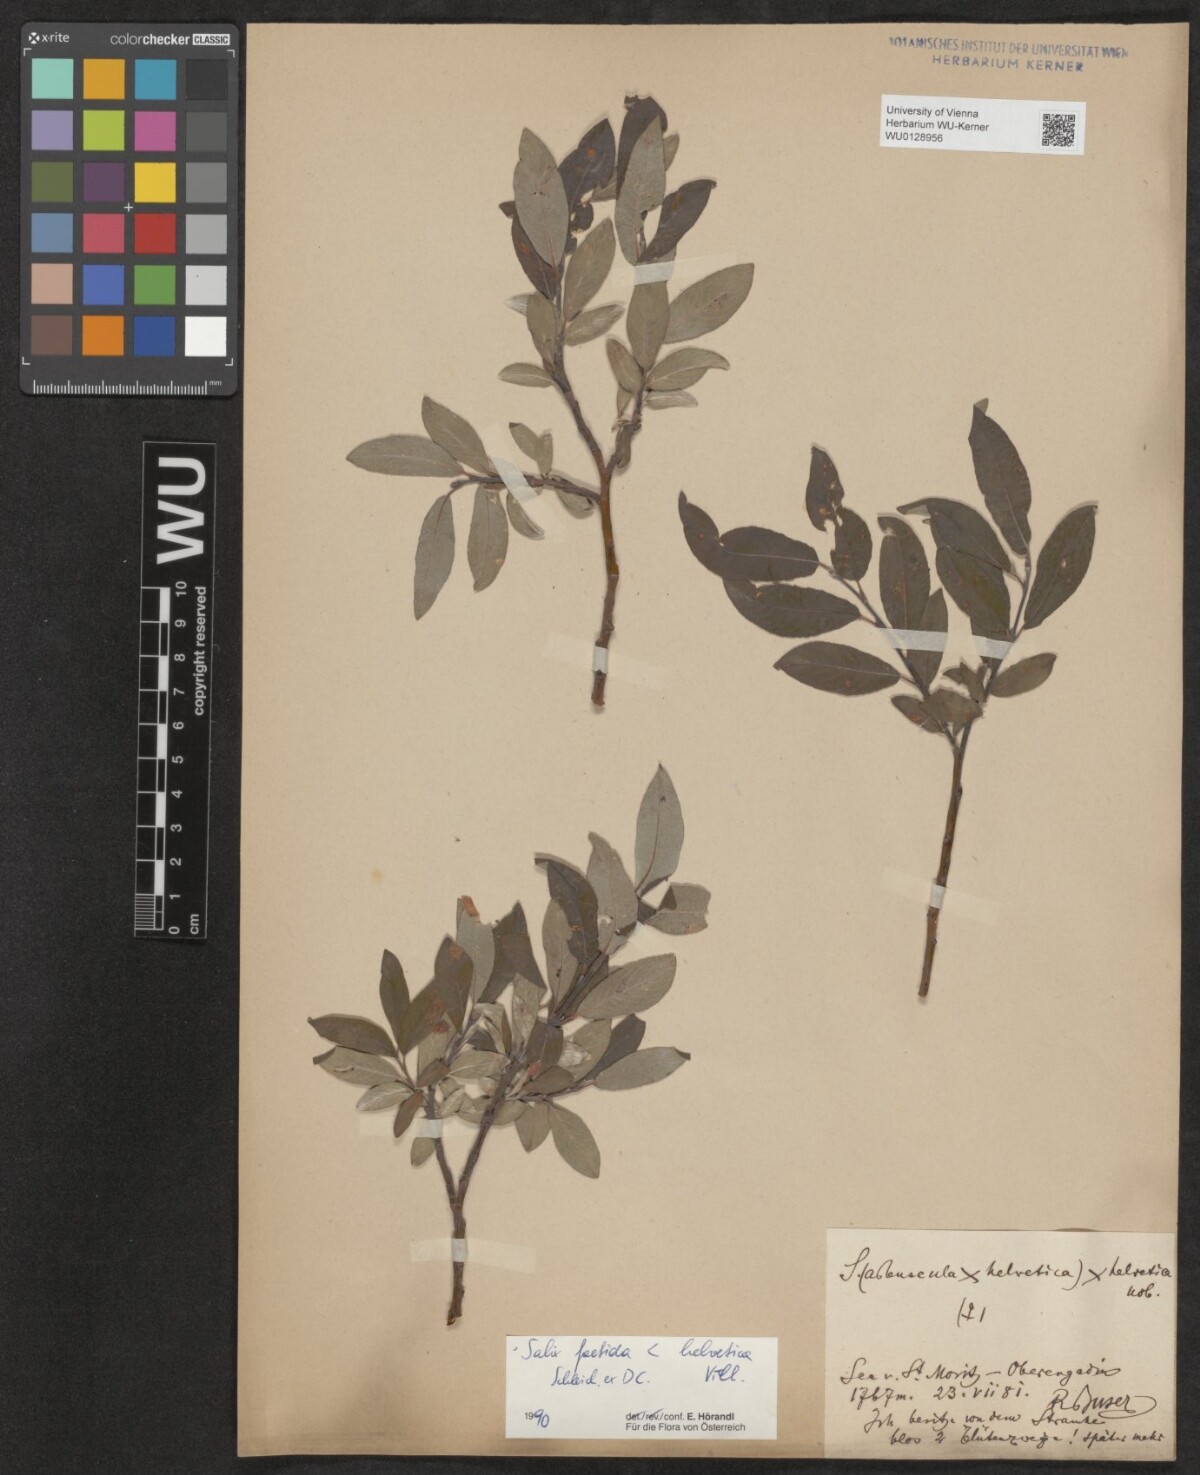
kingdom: Plantae
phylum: Tracheophyta
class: Magnoliopsida
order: Malpighiales
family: Salicaceae
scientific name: Salicaceae
